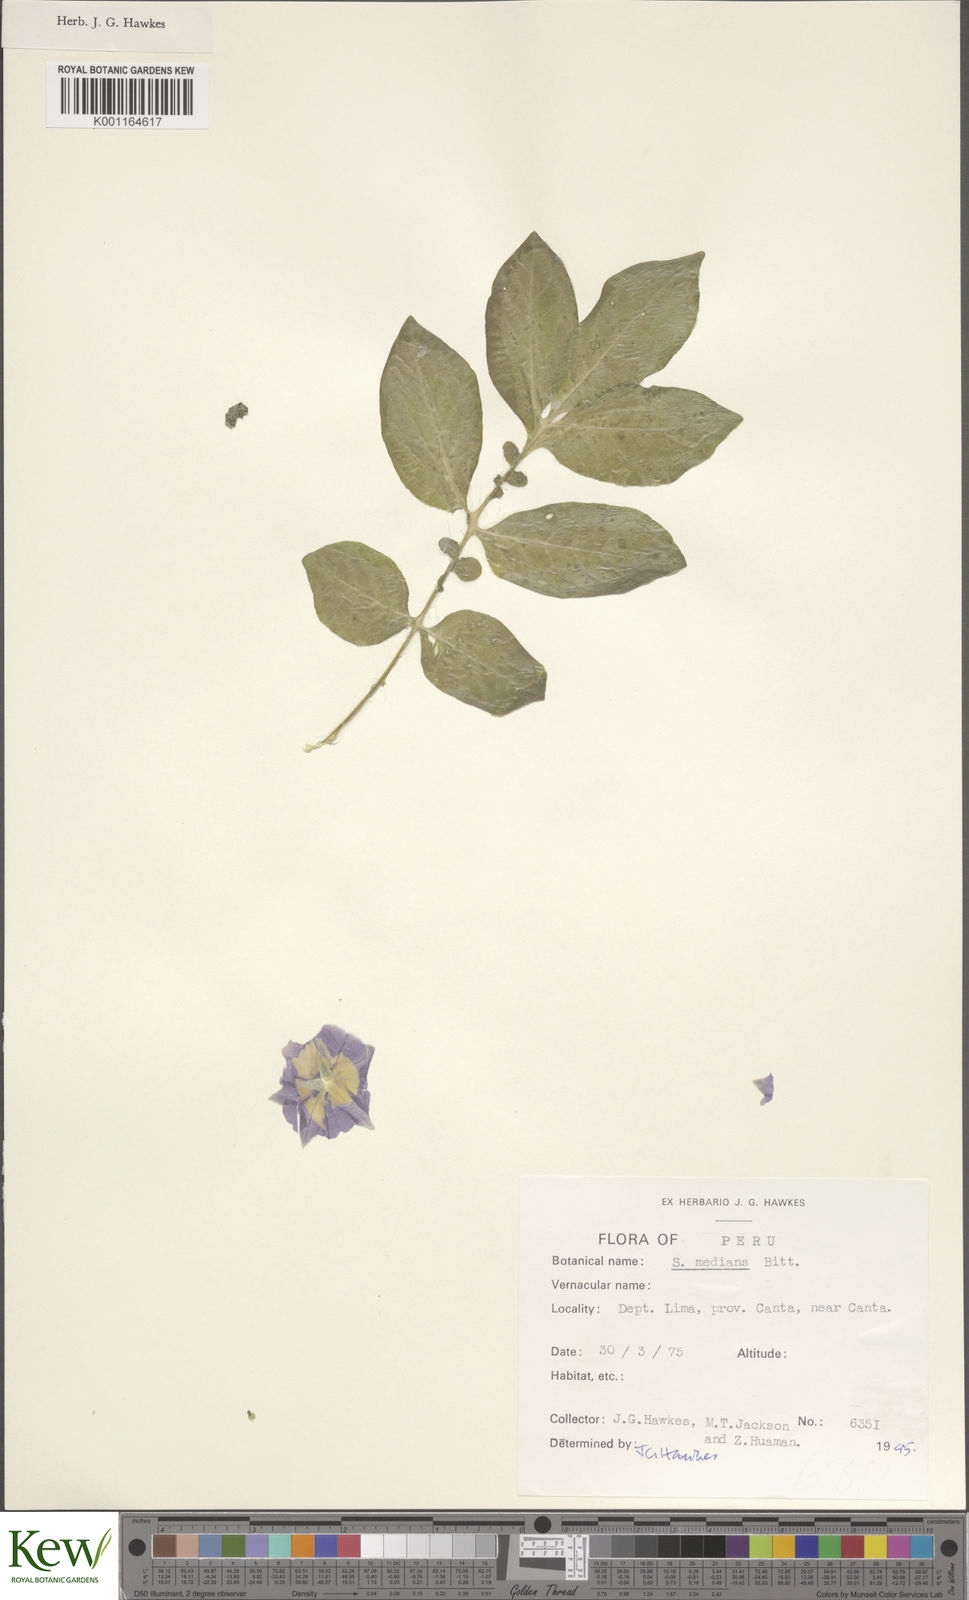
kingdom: Plantae
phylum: Tracheophyta
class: Magnoliopsida
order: Solanales
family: Solanaceae
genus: Solanum
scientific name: Solanum medians
